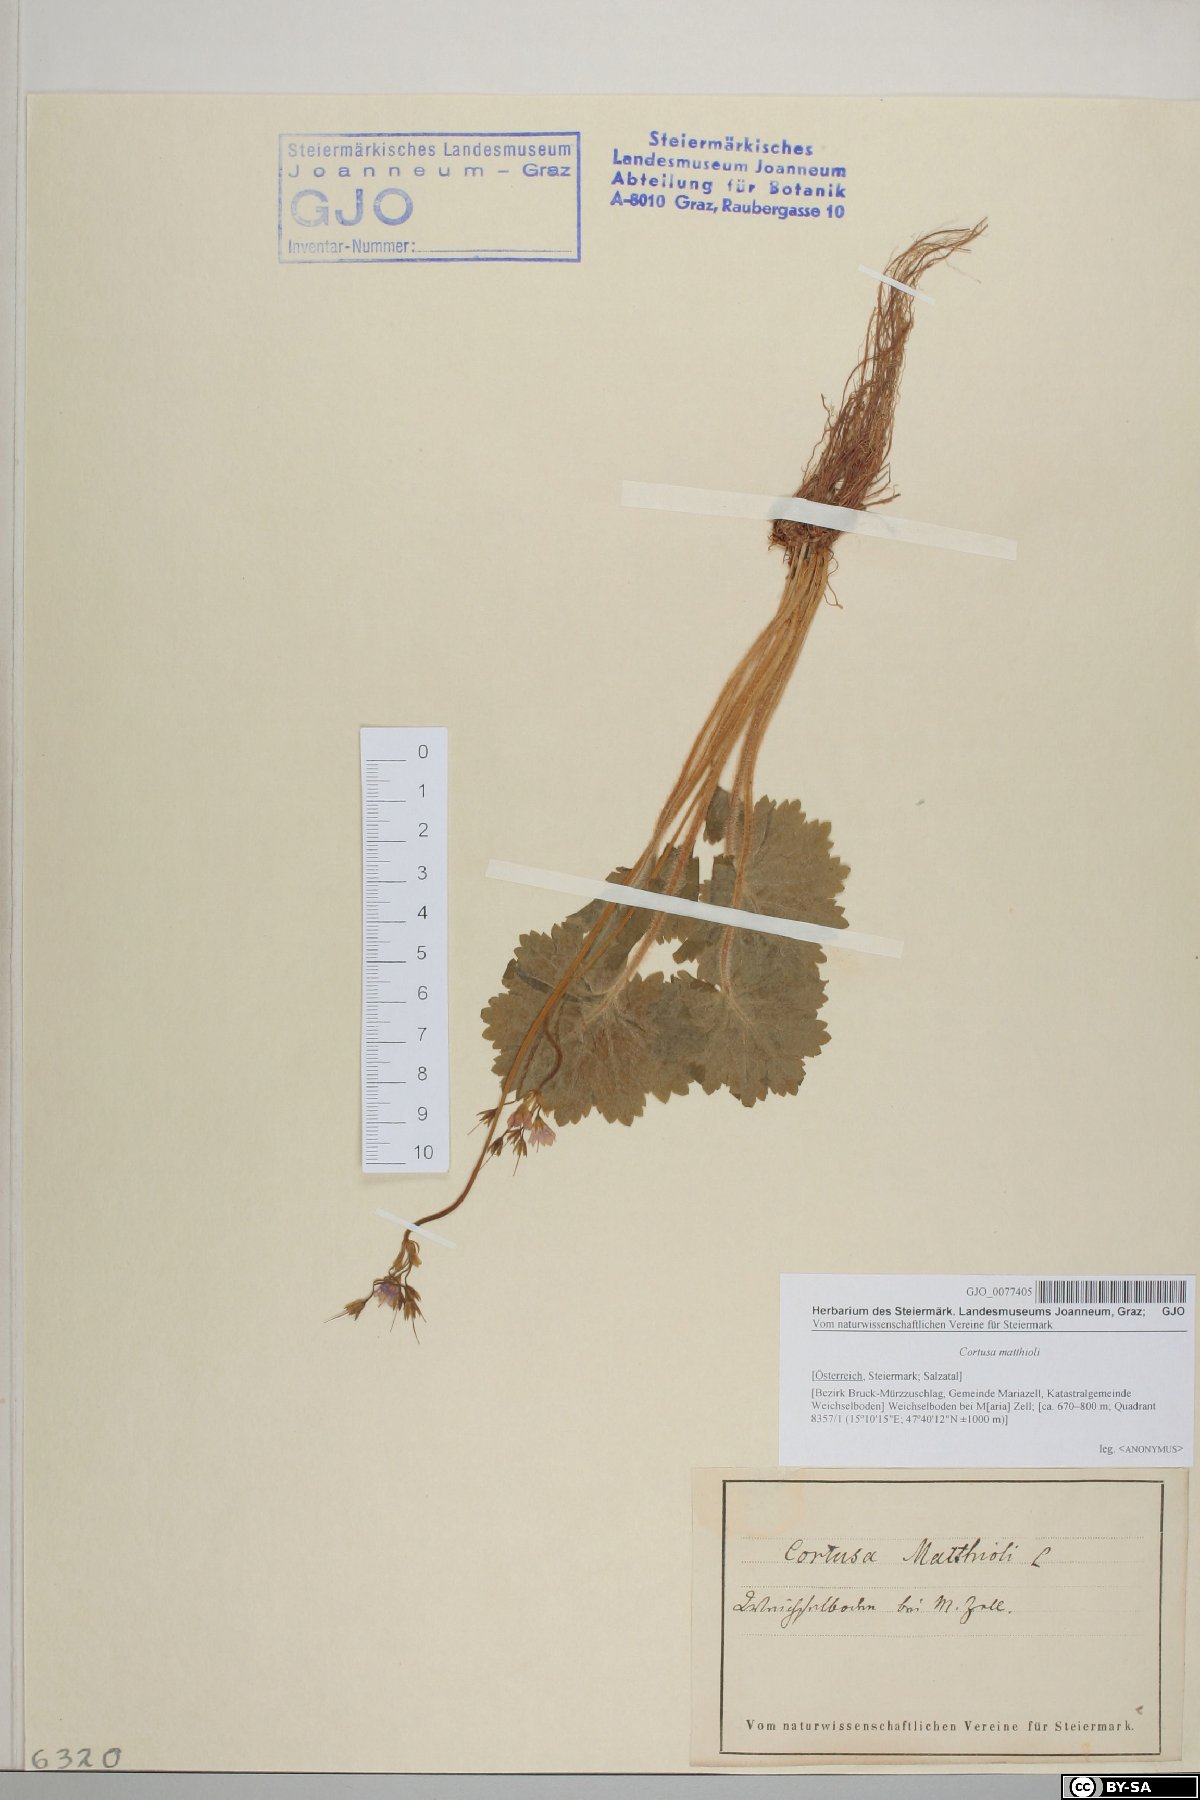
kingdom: Plantae
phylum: Tracheophyta
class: Magnoliopsida
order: Ericales
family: Primulaceae
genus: Primula
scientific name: Primula matthioli
